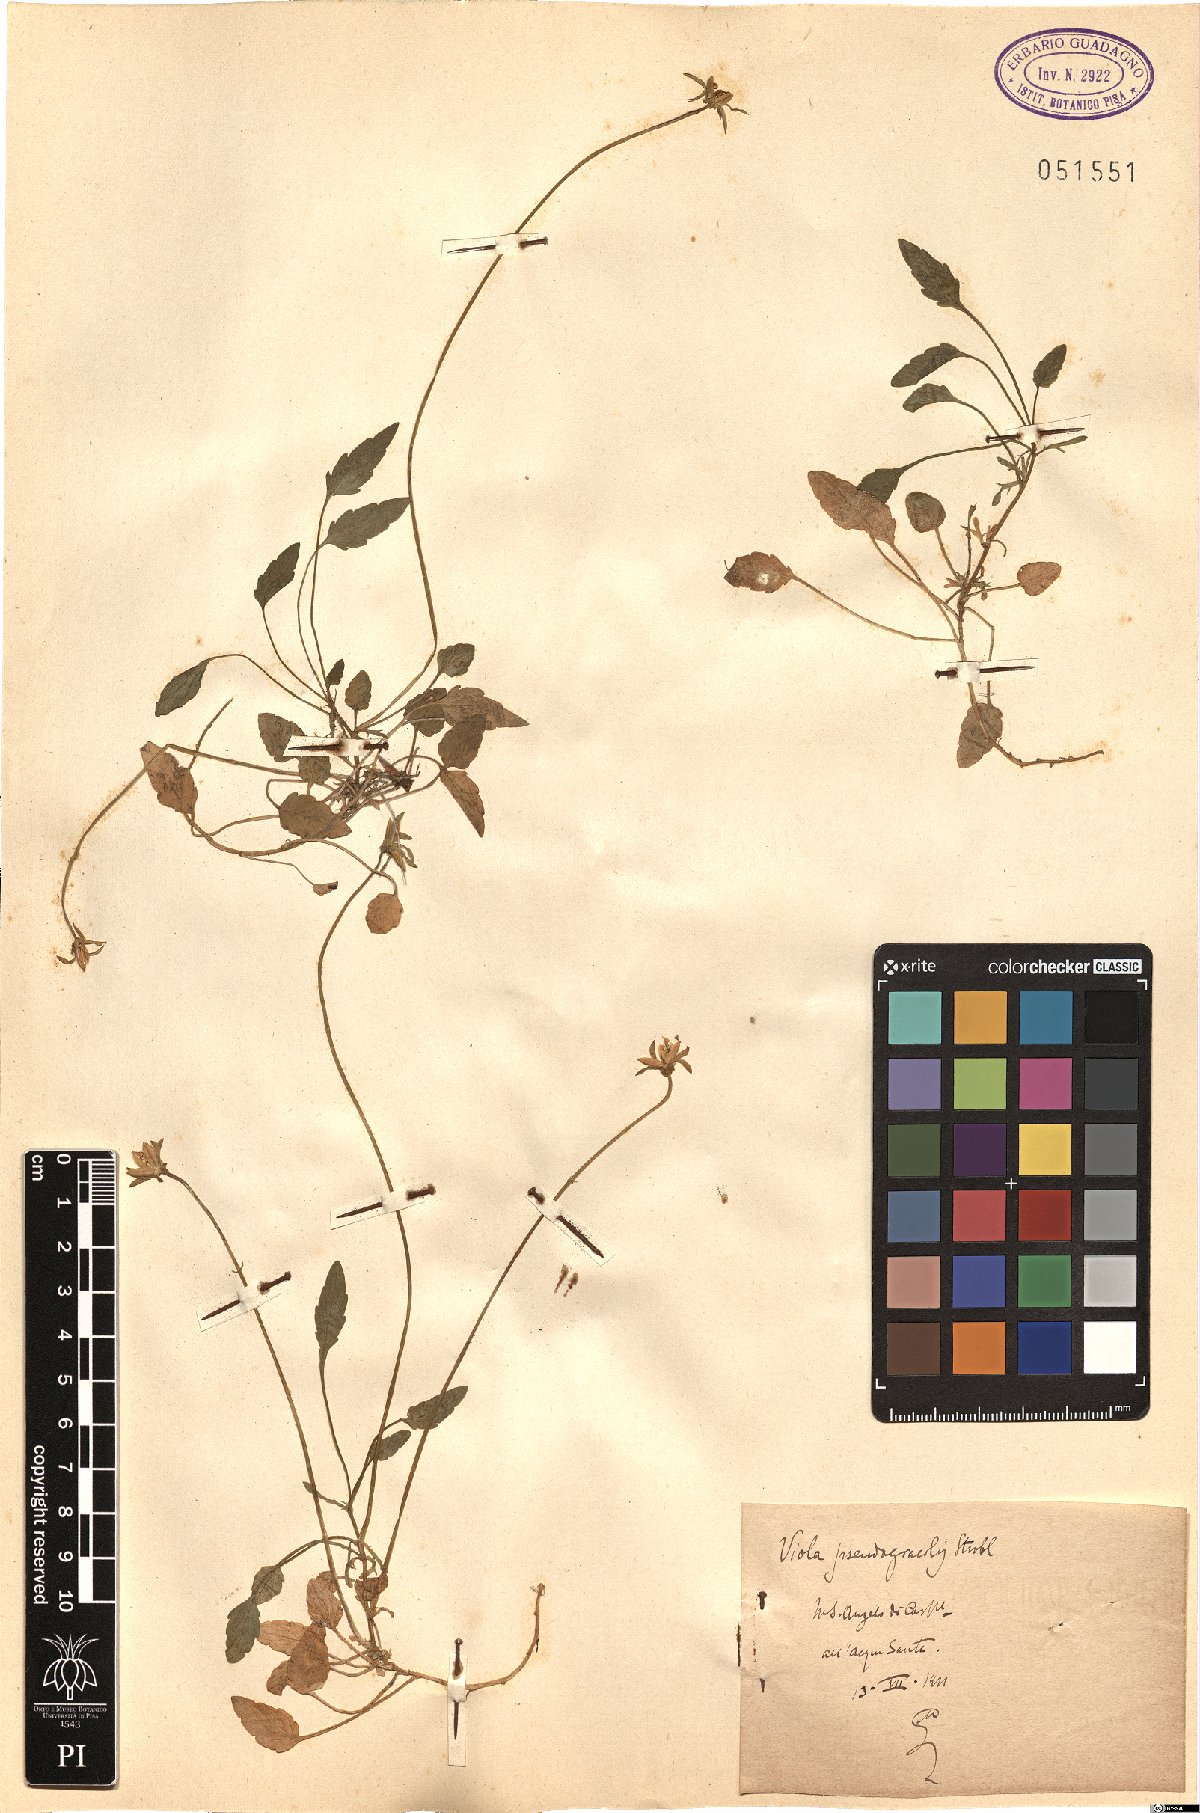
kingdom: Plantae
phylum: Tracheophyta
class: Magnoliopsida
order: Malpighiales
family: Violaceae
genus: Viola
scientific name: Viola pseudogracilis
